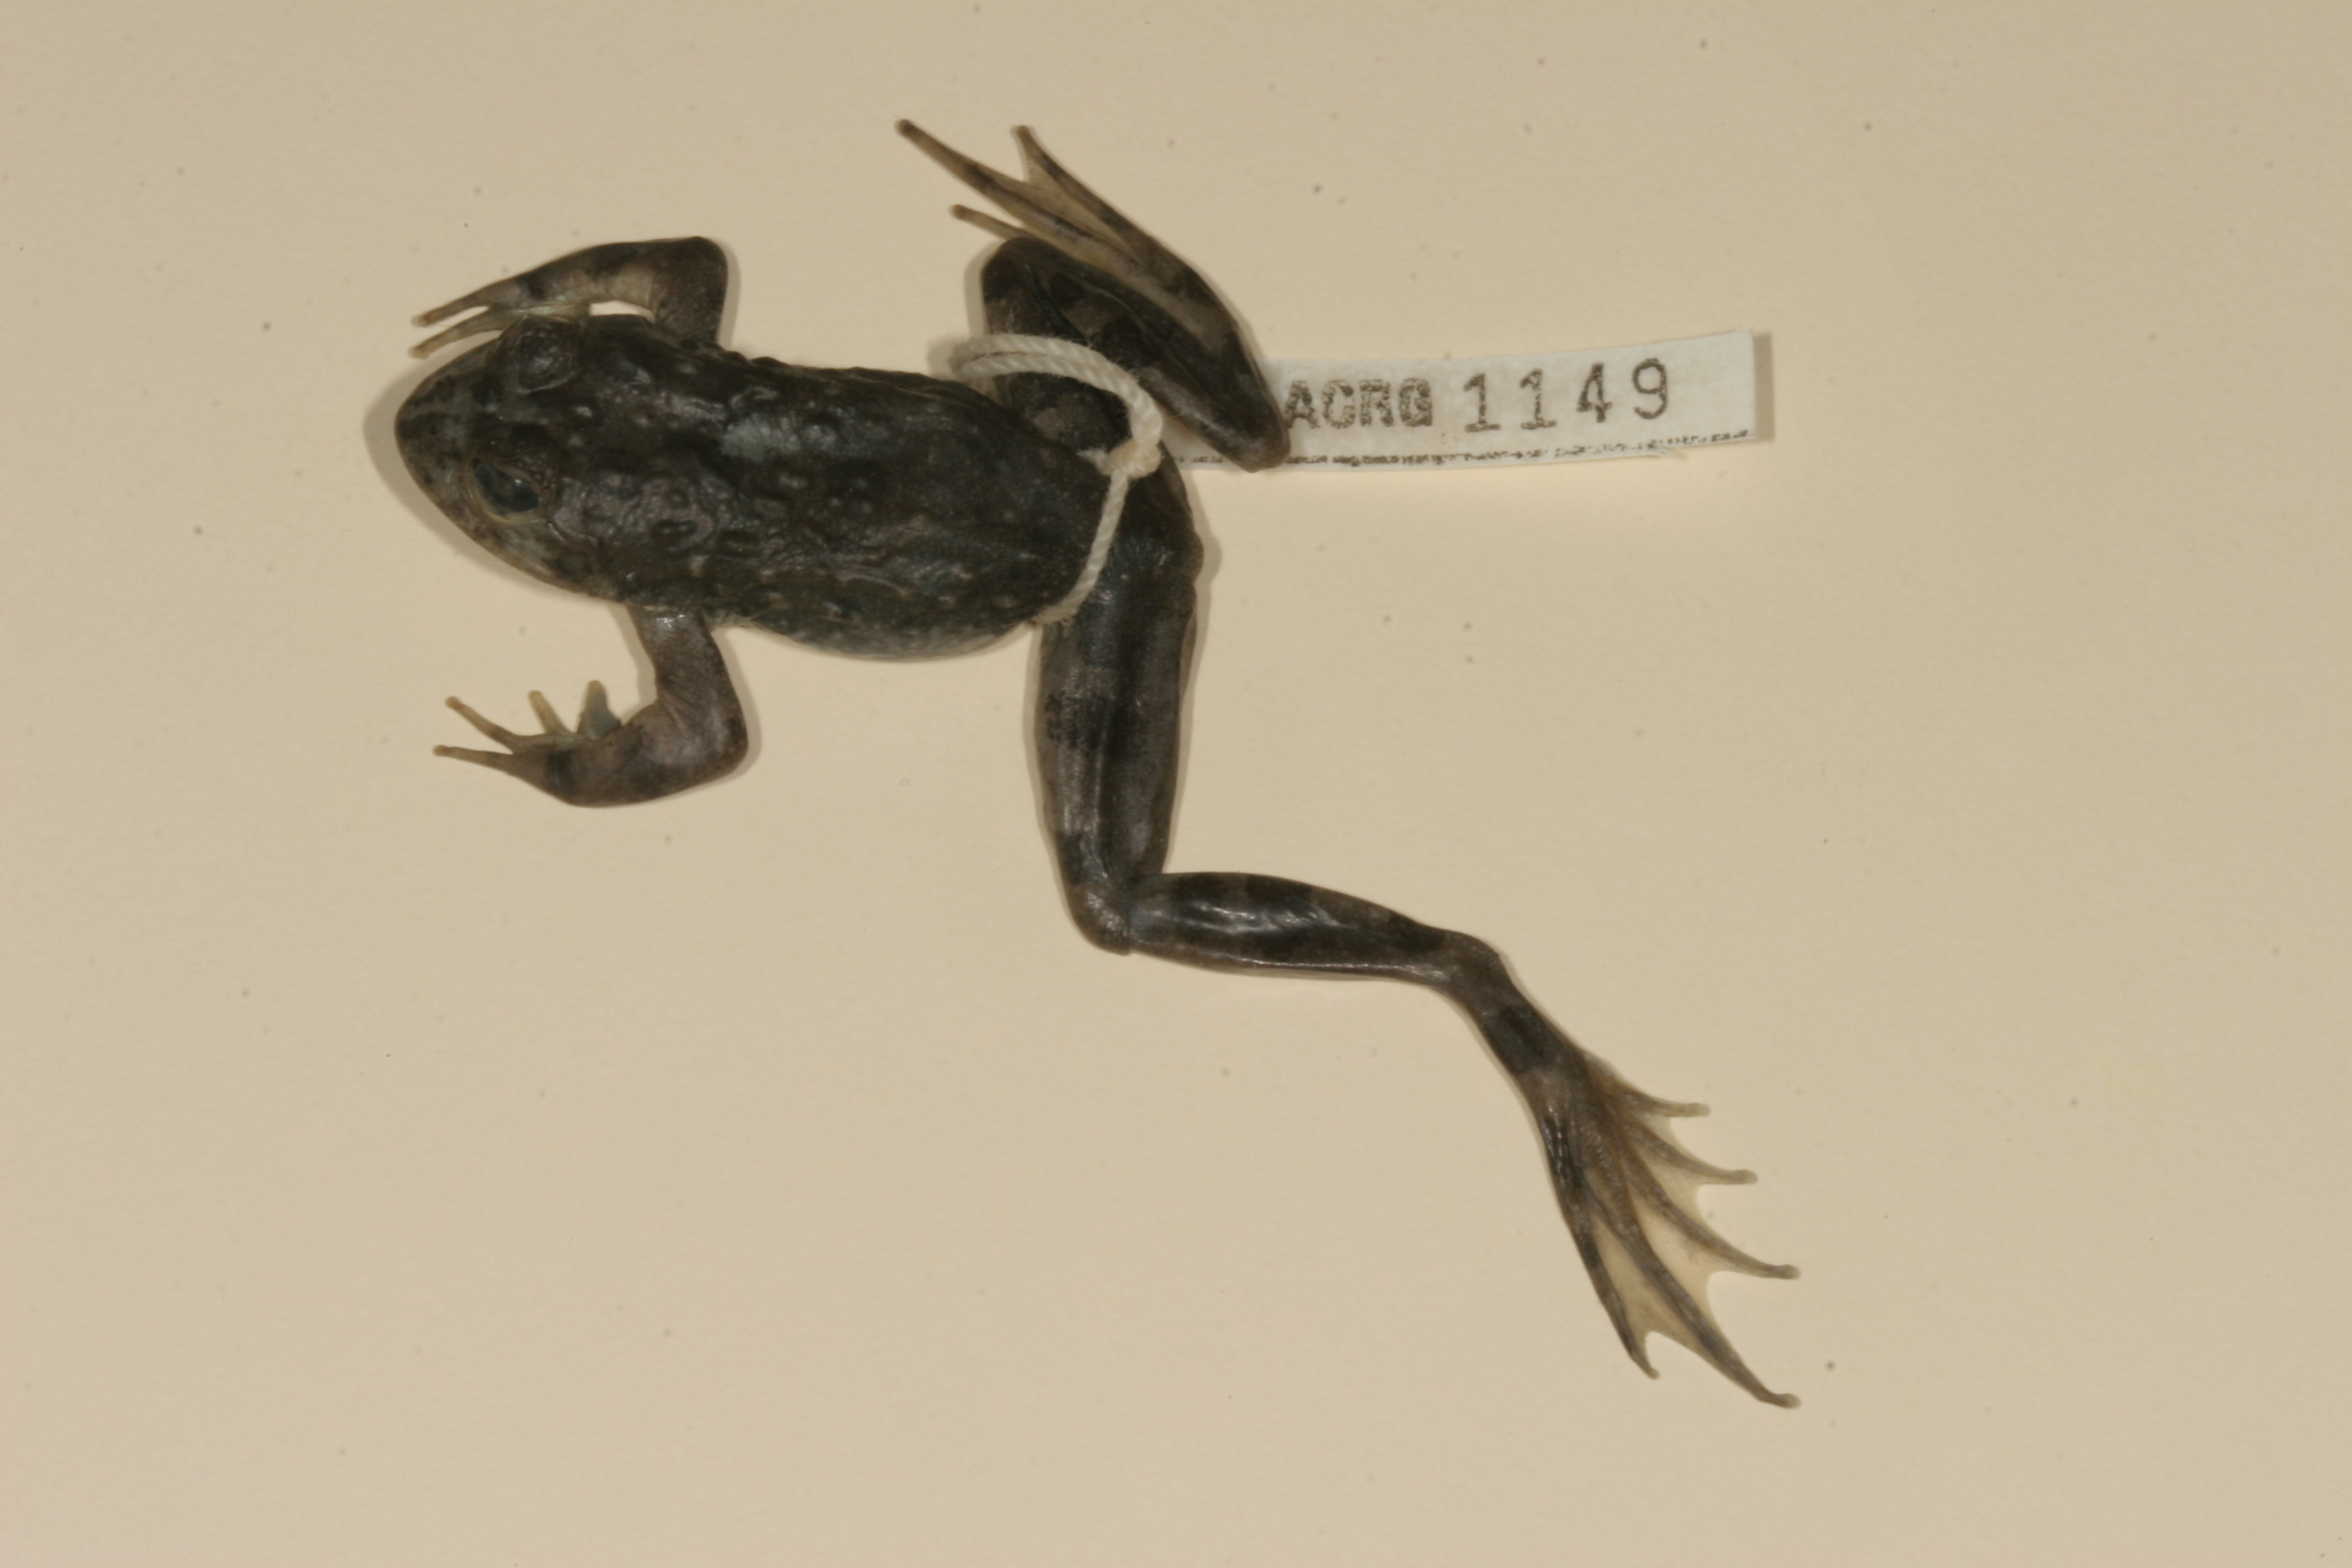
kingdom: Animalia
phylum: Chordata
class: Amphibia
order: Anura
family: Pyxicephalidae
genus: Amietia
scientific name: Amietia vertebralis
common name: Drakensberg stream frog
